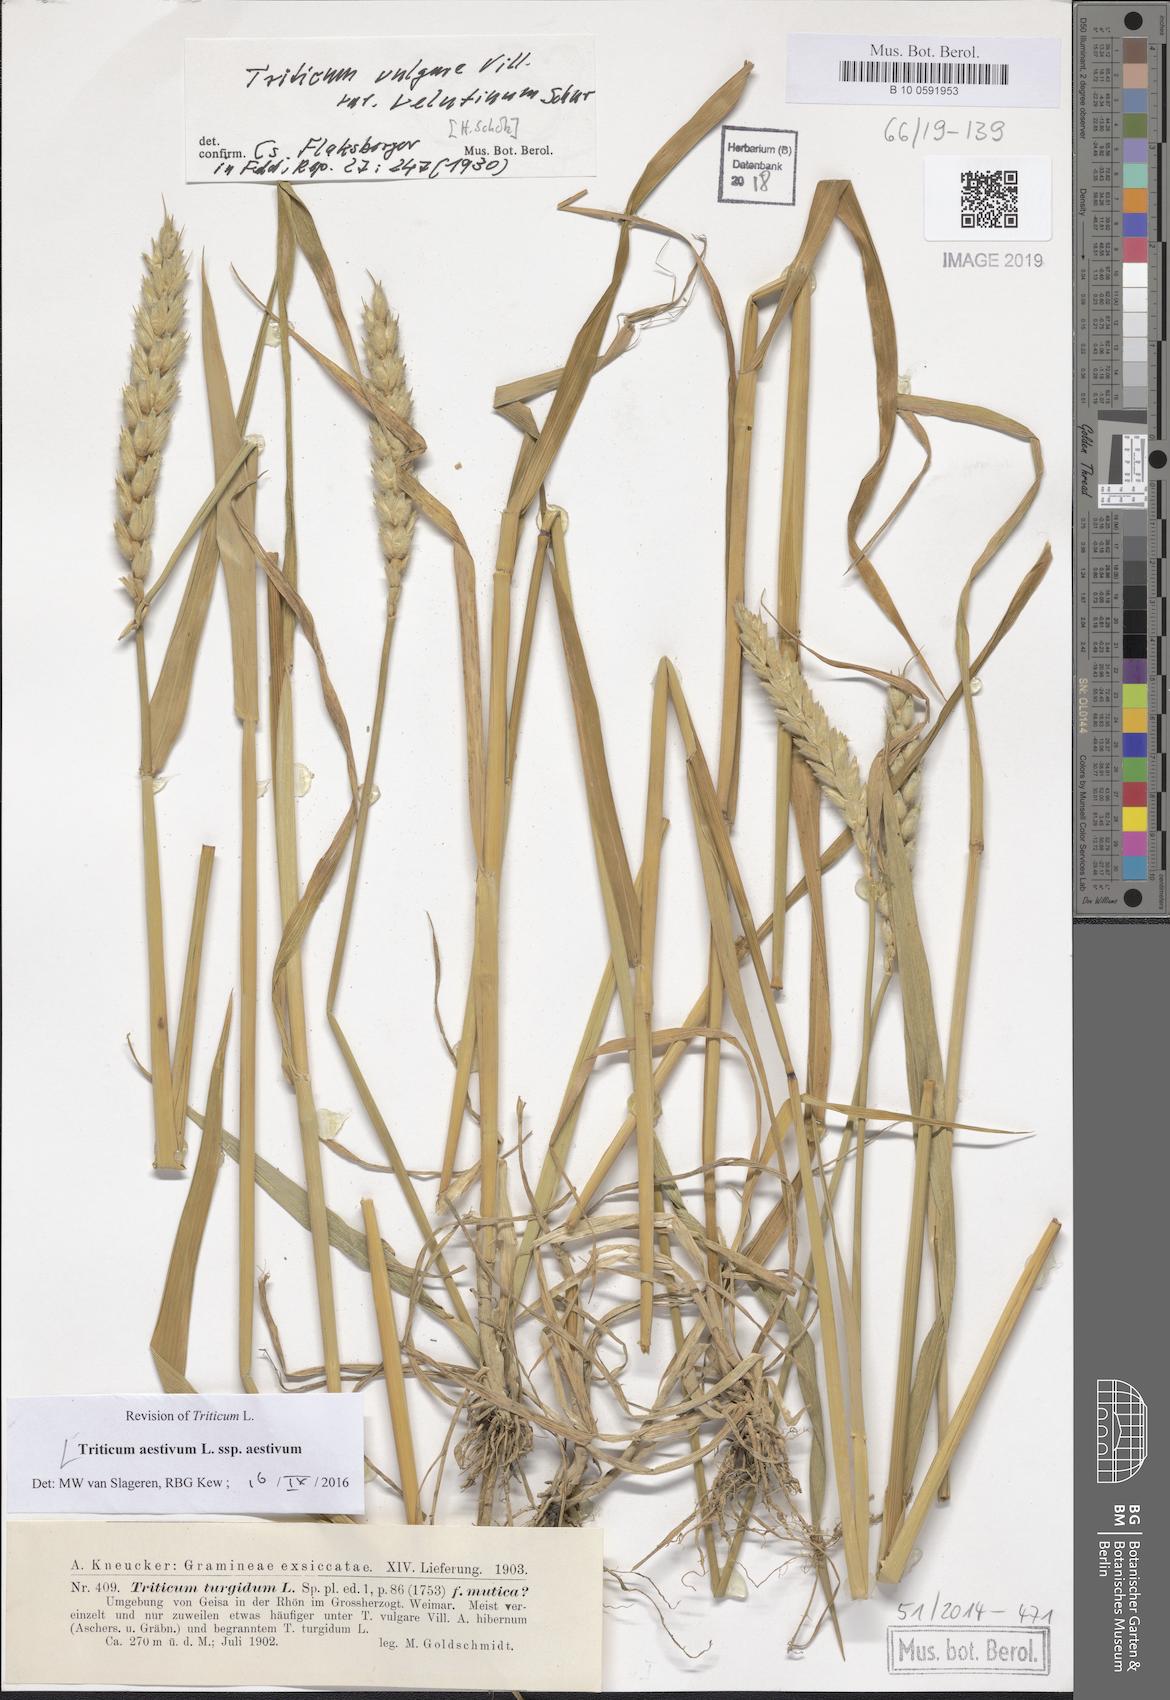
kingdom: Plantae
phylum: Tracheophyta
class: Liliopsida
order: Poales
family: Poaceae
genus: Triticum
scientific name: Triticum aestivum
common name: Common wheat
